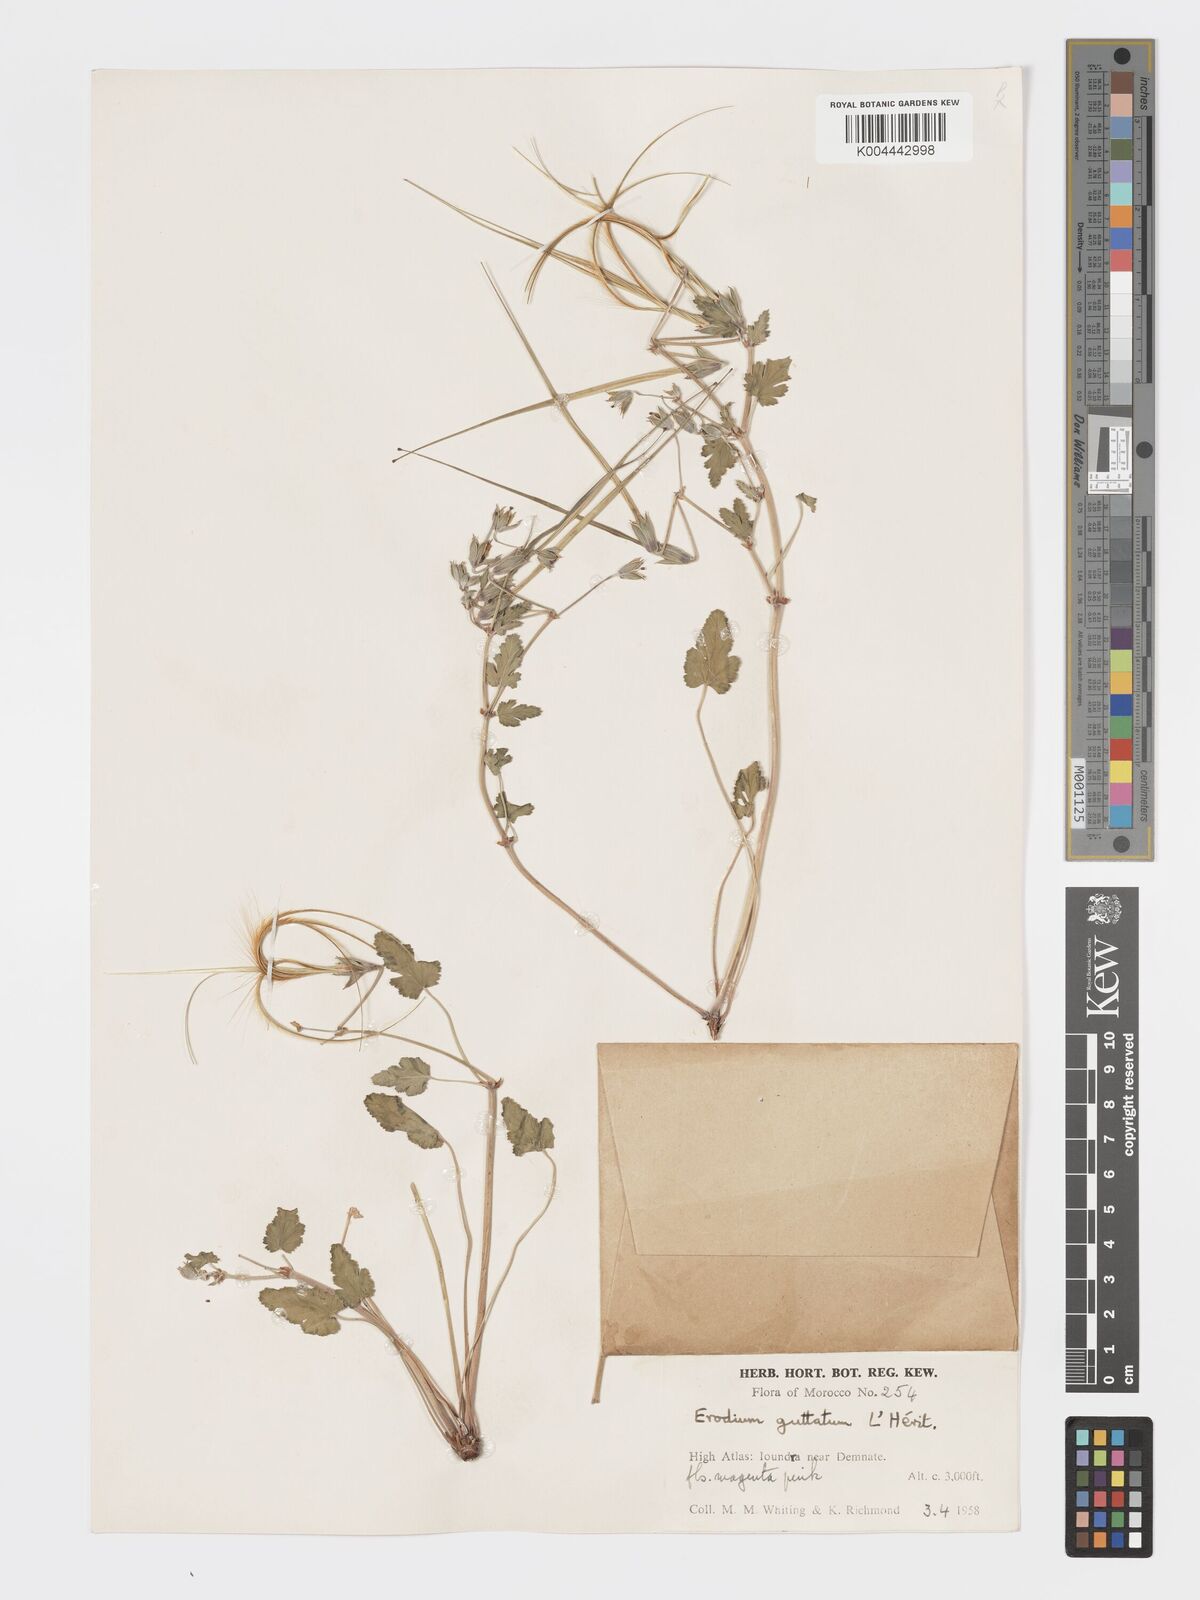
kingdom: Plantae
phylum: Tracheophyta
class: Magnoliopsida
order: Geraniales
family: Geraniaceae
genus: Erodium
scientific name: Erodium guttatum
